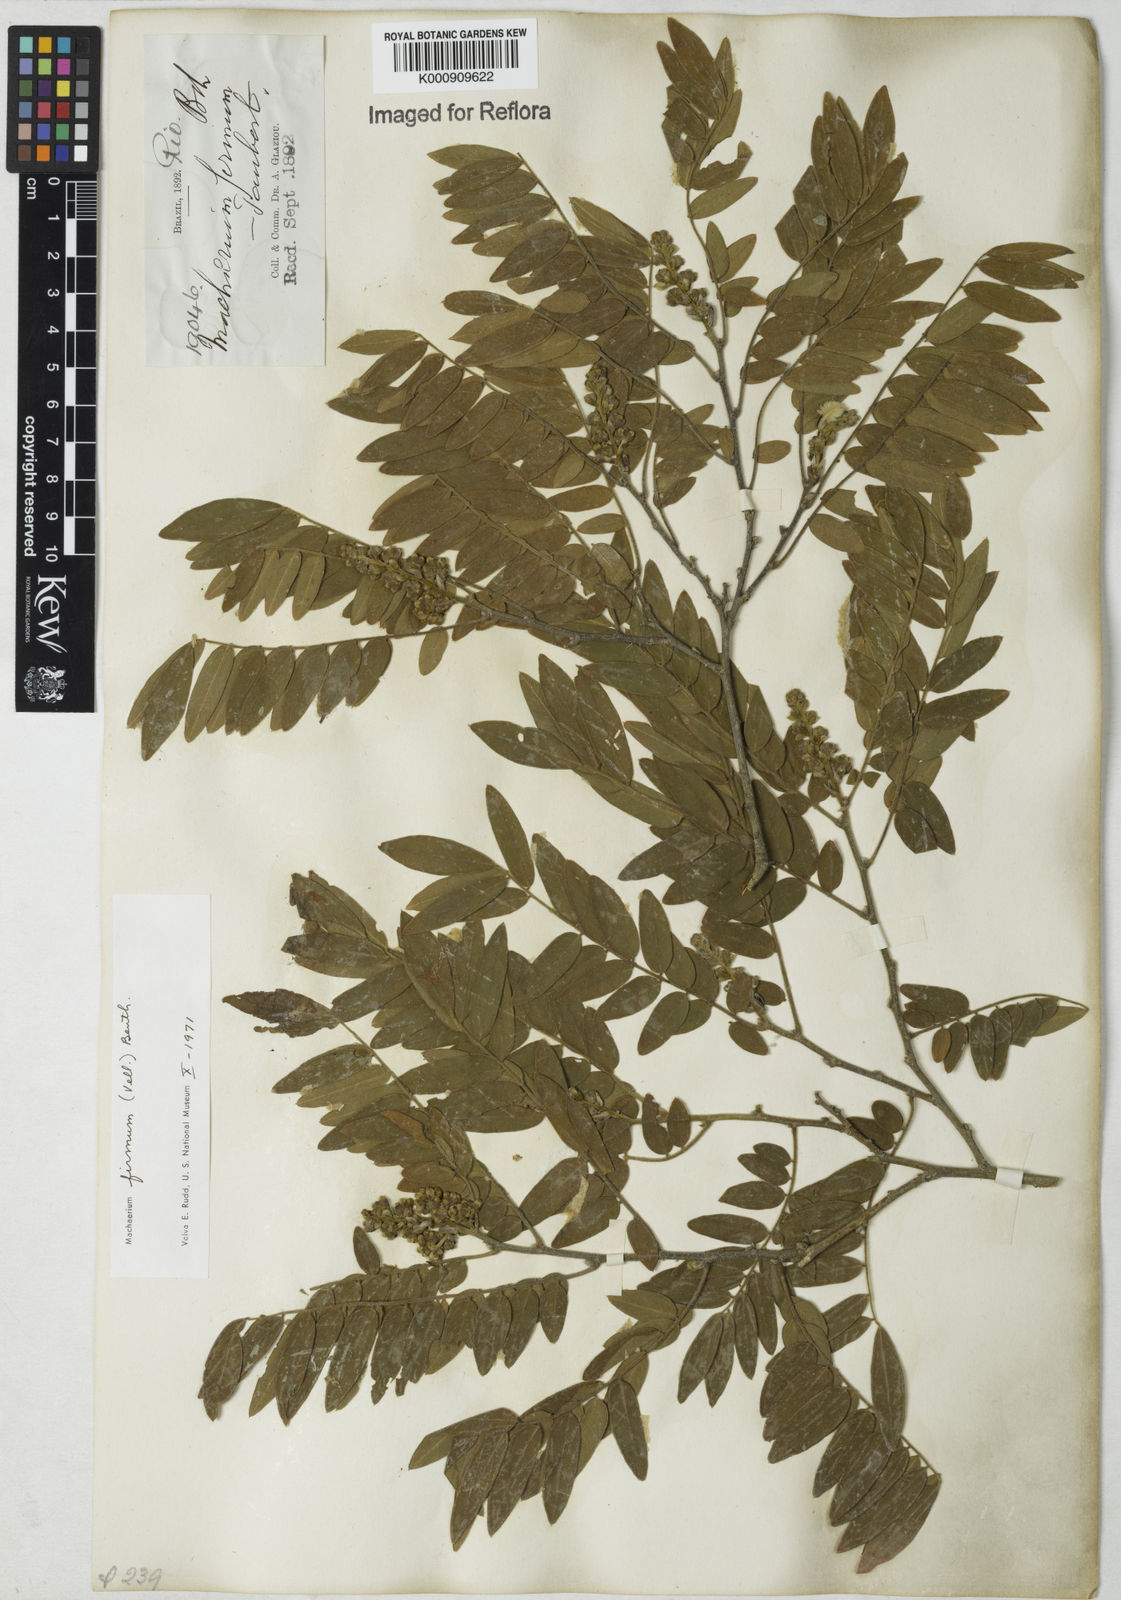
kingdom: Plantae
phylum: Tracheophyta
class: Magnoliopsida
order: Fabales
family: Fabaceae
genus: Machaerium
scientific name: Machaerium firmum
